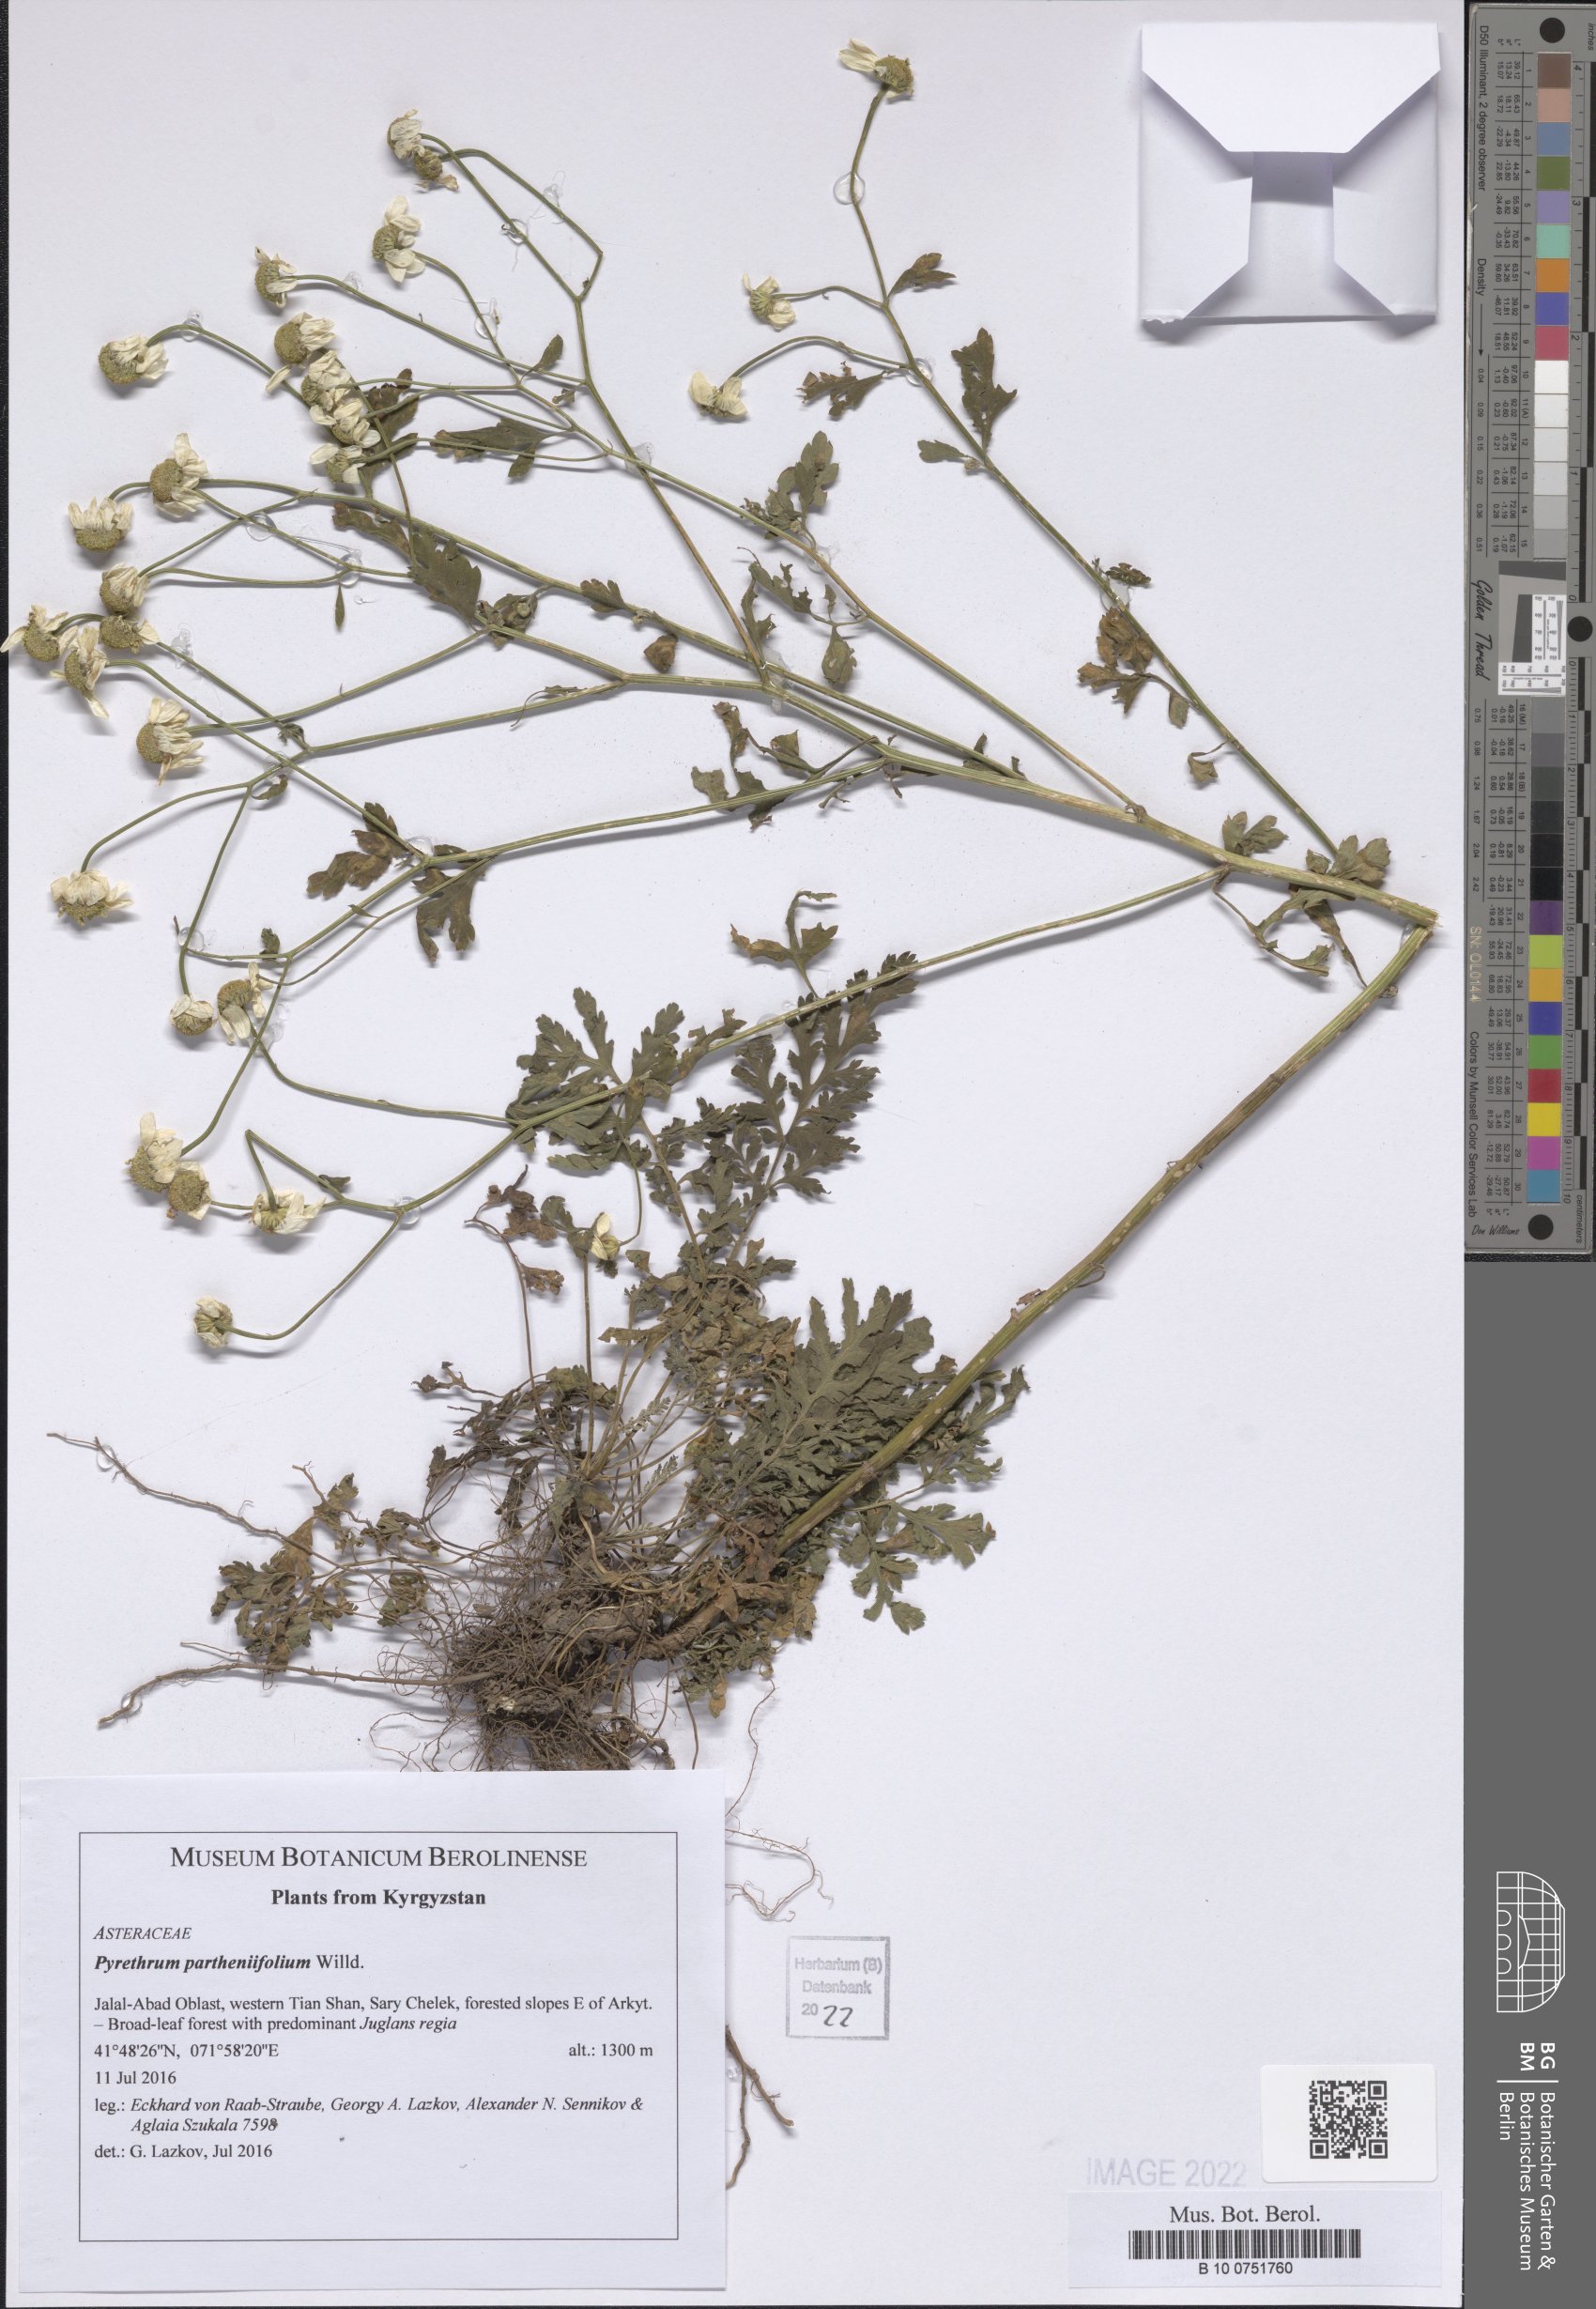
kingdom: Plantae
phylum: Tracheophyta
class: Magnoliopsida
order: Asterales
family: Asteraceae
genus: Tanacetum
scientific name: Tanacetum partheniifolium
